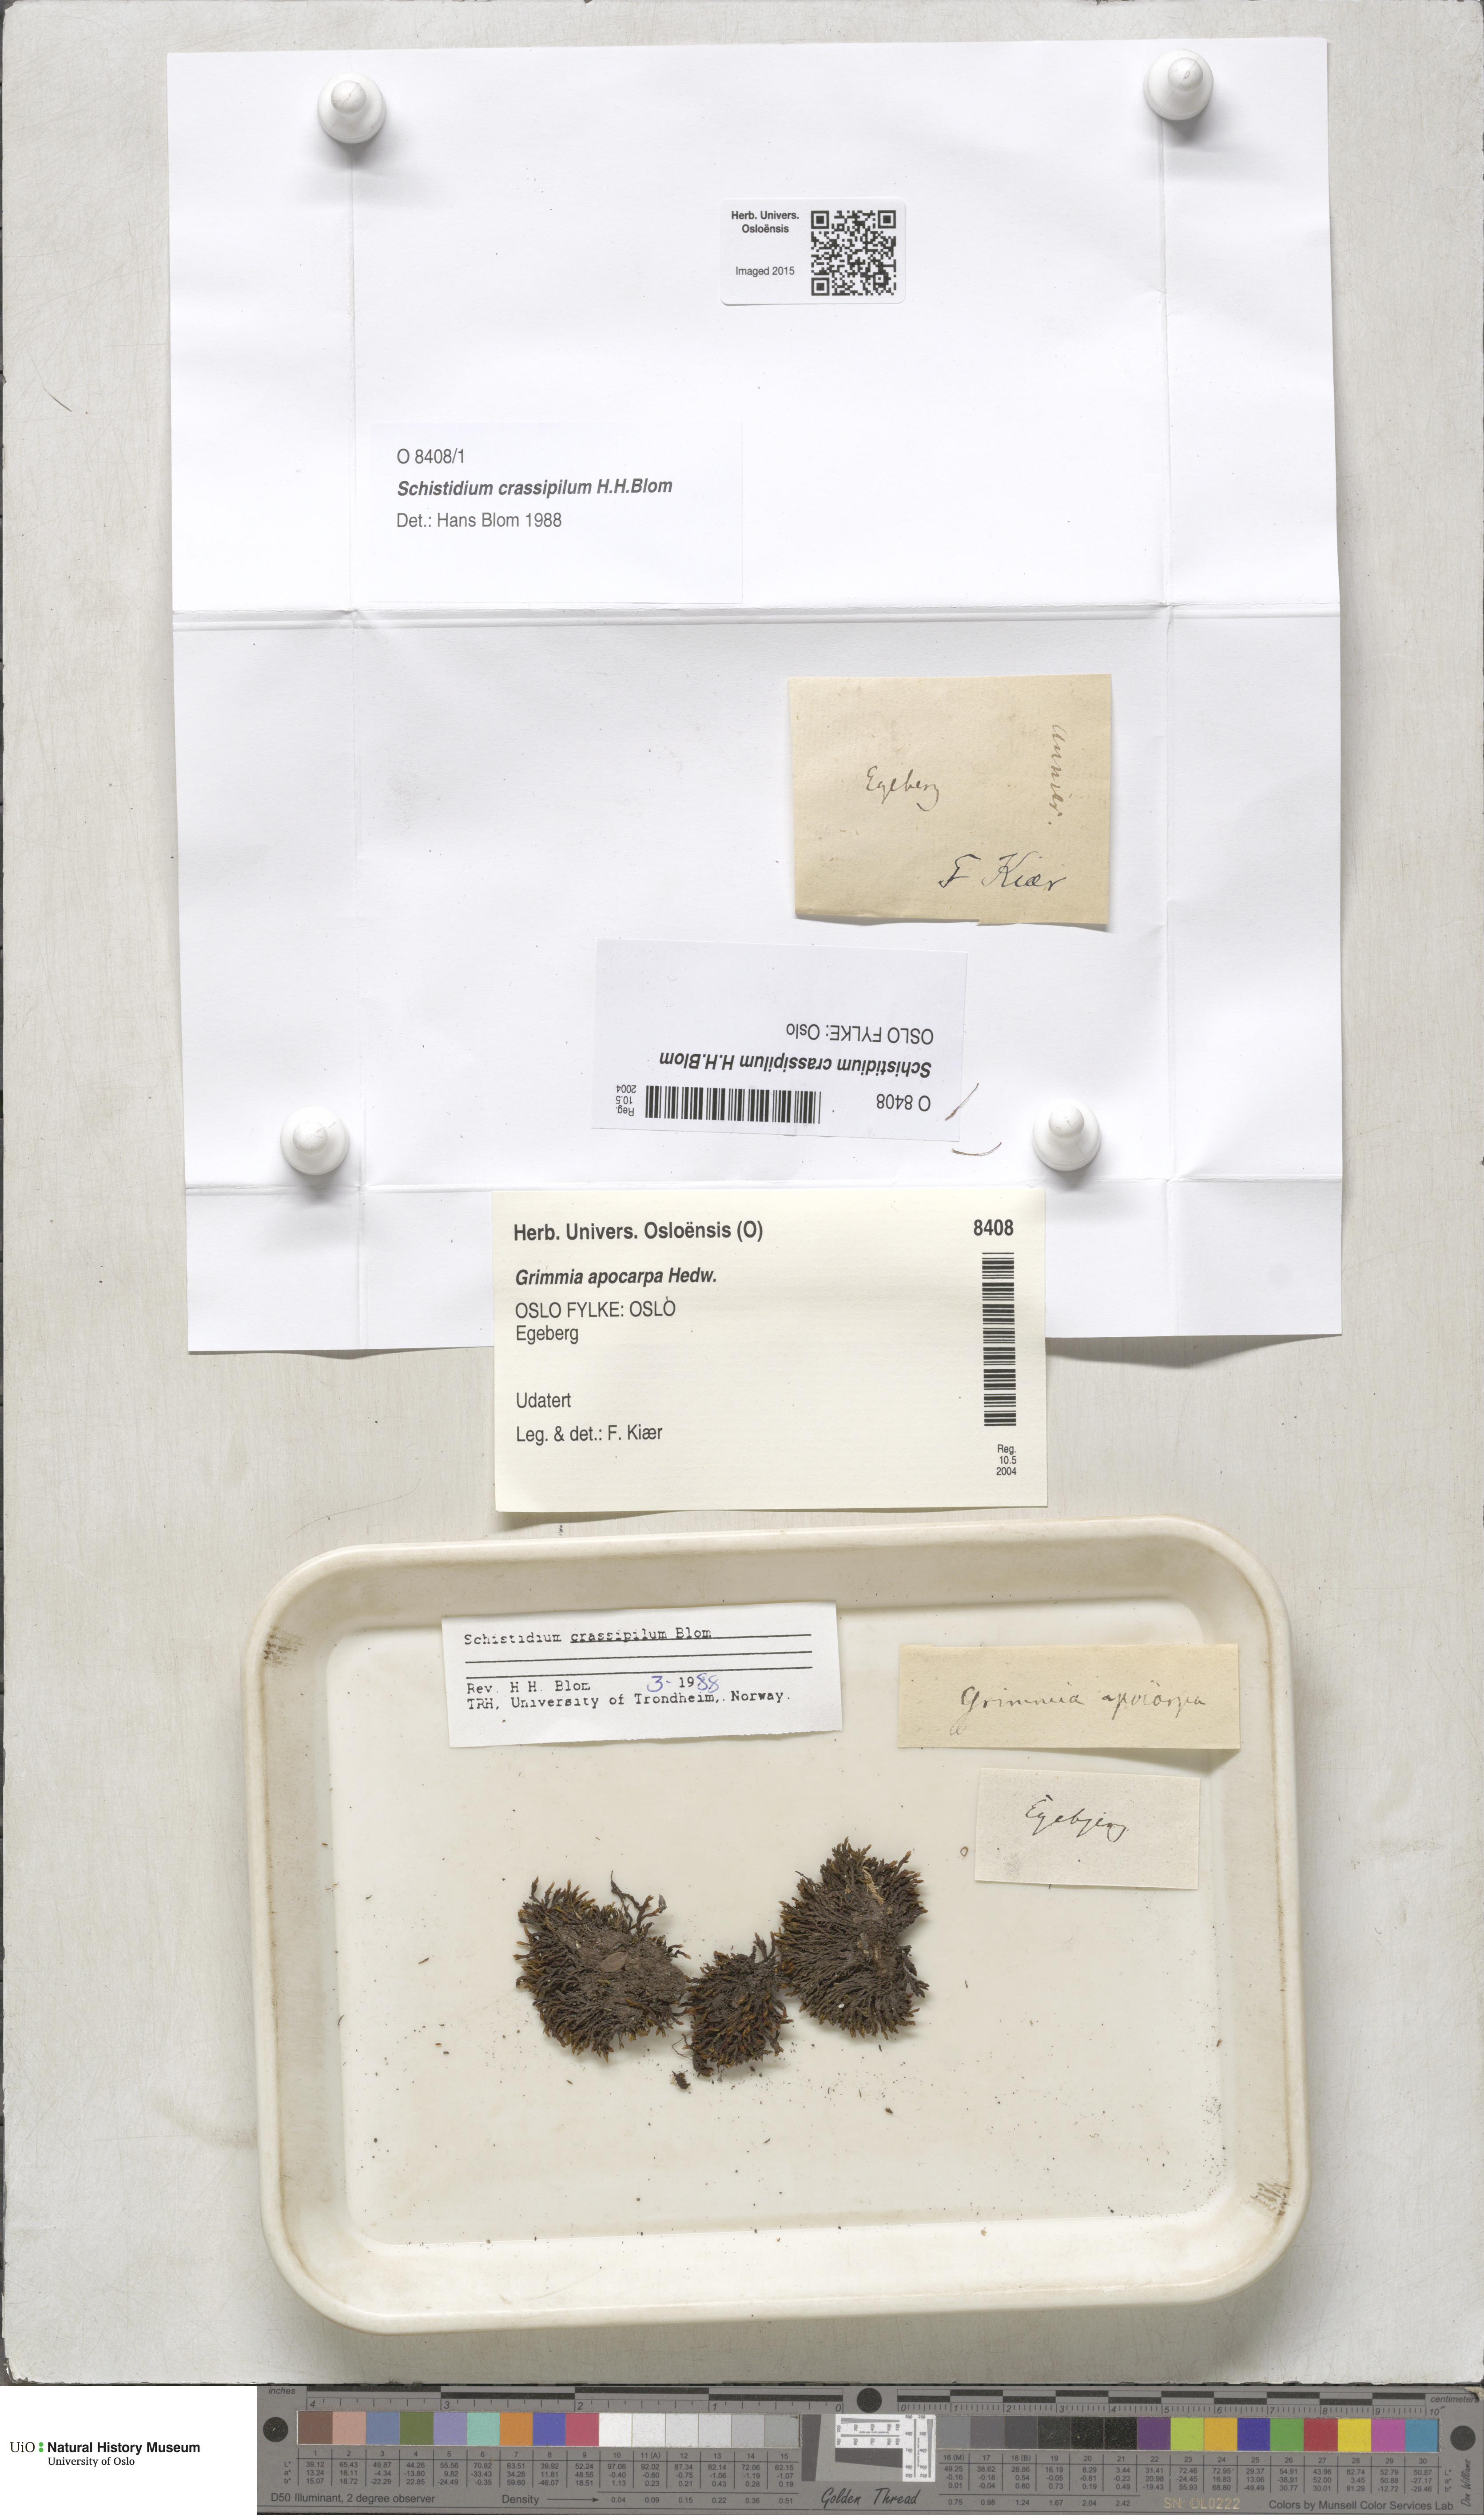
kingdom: Plantae
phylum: Bryophyta
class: Bryopsida
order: Grimmiales
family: Grimmiaceae
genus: Schistidium
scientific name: Schistidium crassipilum
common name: Thickpoint bloom moss
